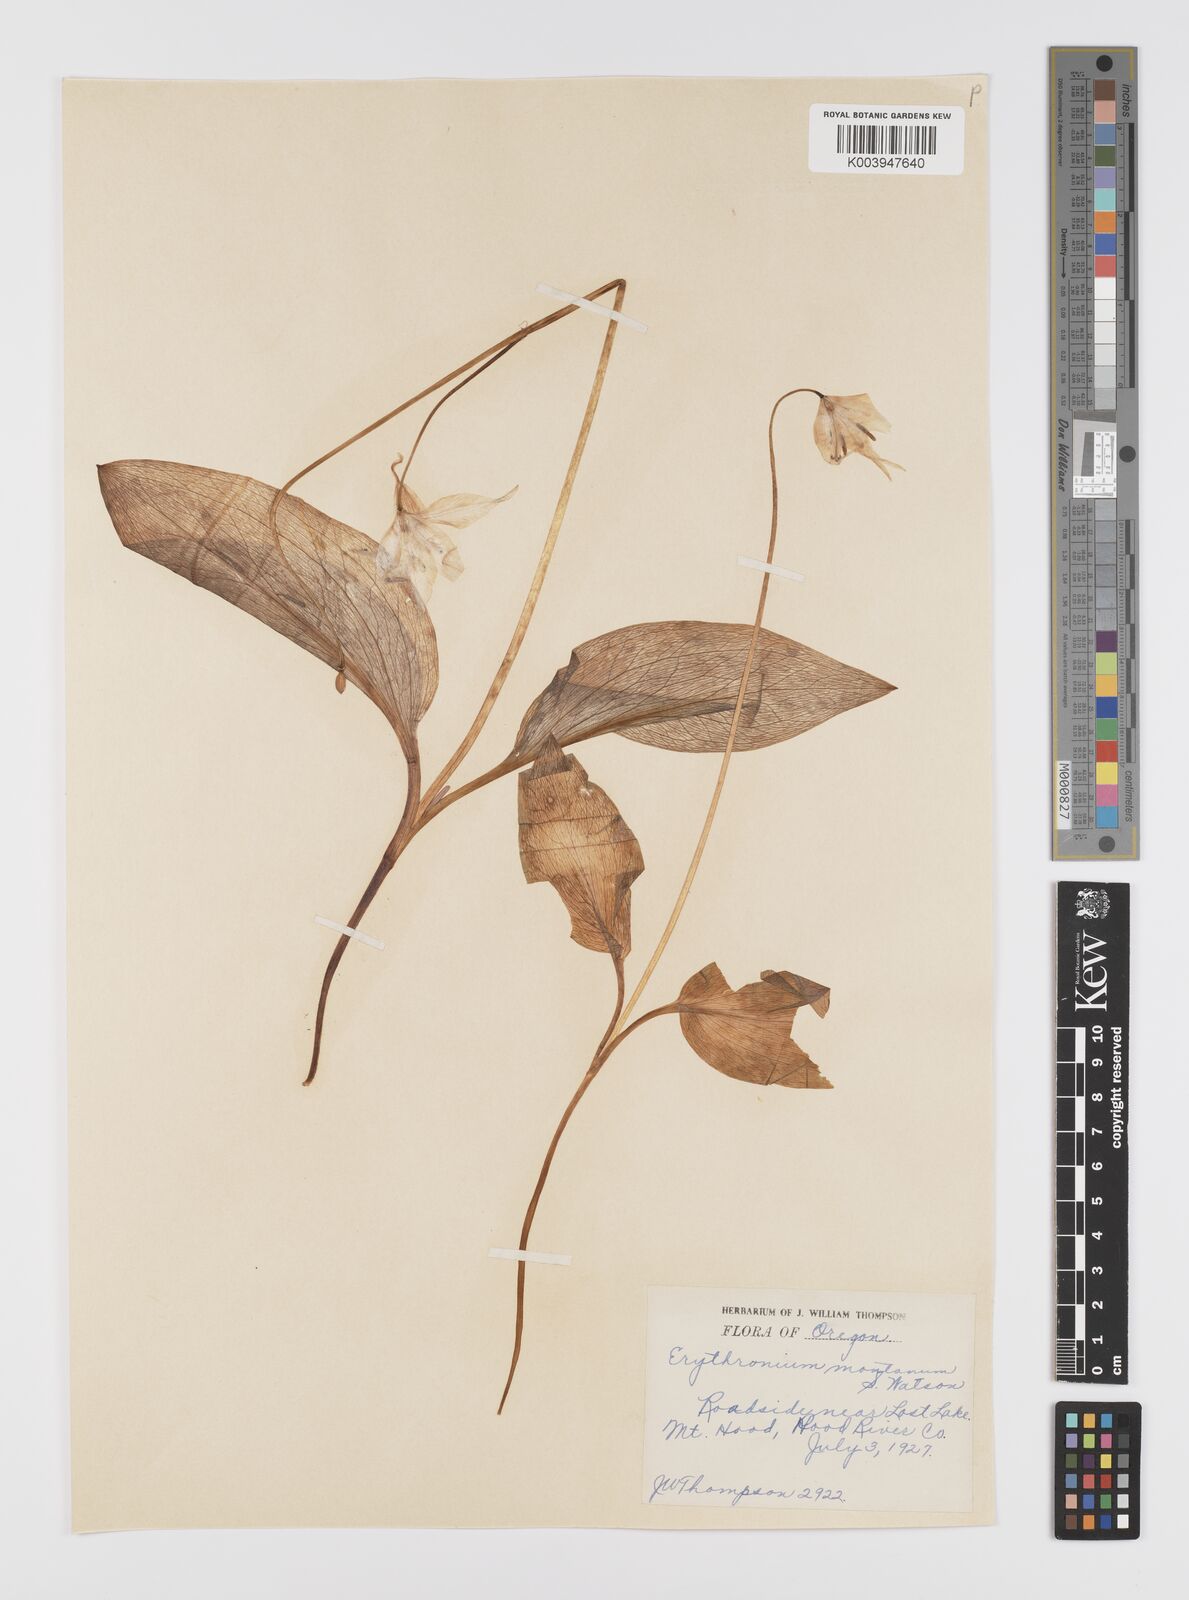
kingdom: Plantae
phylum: Tracheophyta
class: Liliopsida
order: Liliales
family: Liliaceae
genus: Erythronium
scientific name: Erythronium montanum
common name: Avalanche lily
